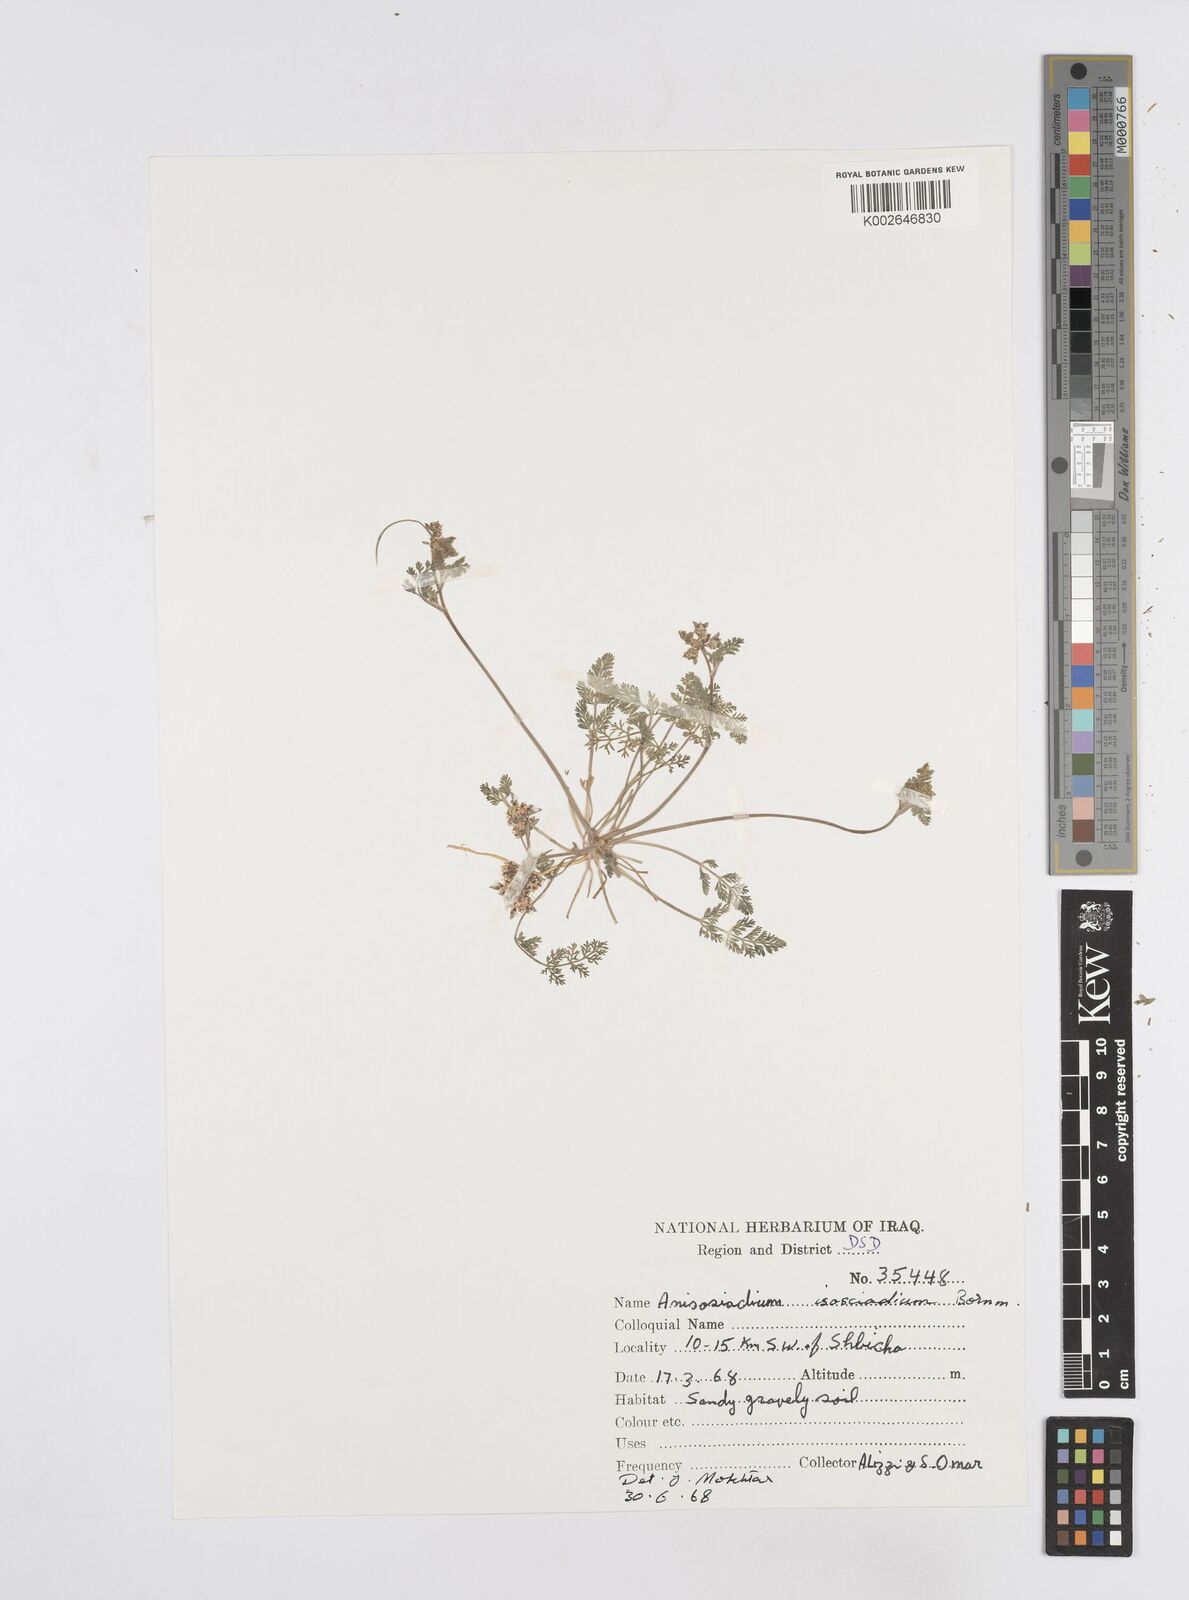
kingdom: Plantae
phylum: Tracheophyta
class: Magnoliopsida
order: Apiales
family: Apiaceae
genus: Anisosciadium
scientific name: Anisosciadium isosciadium
